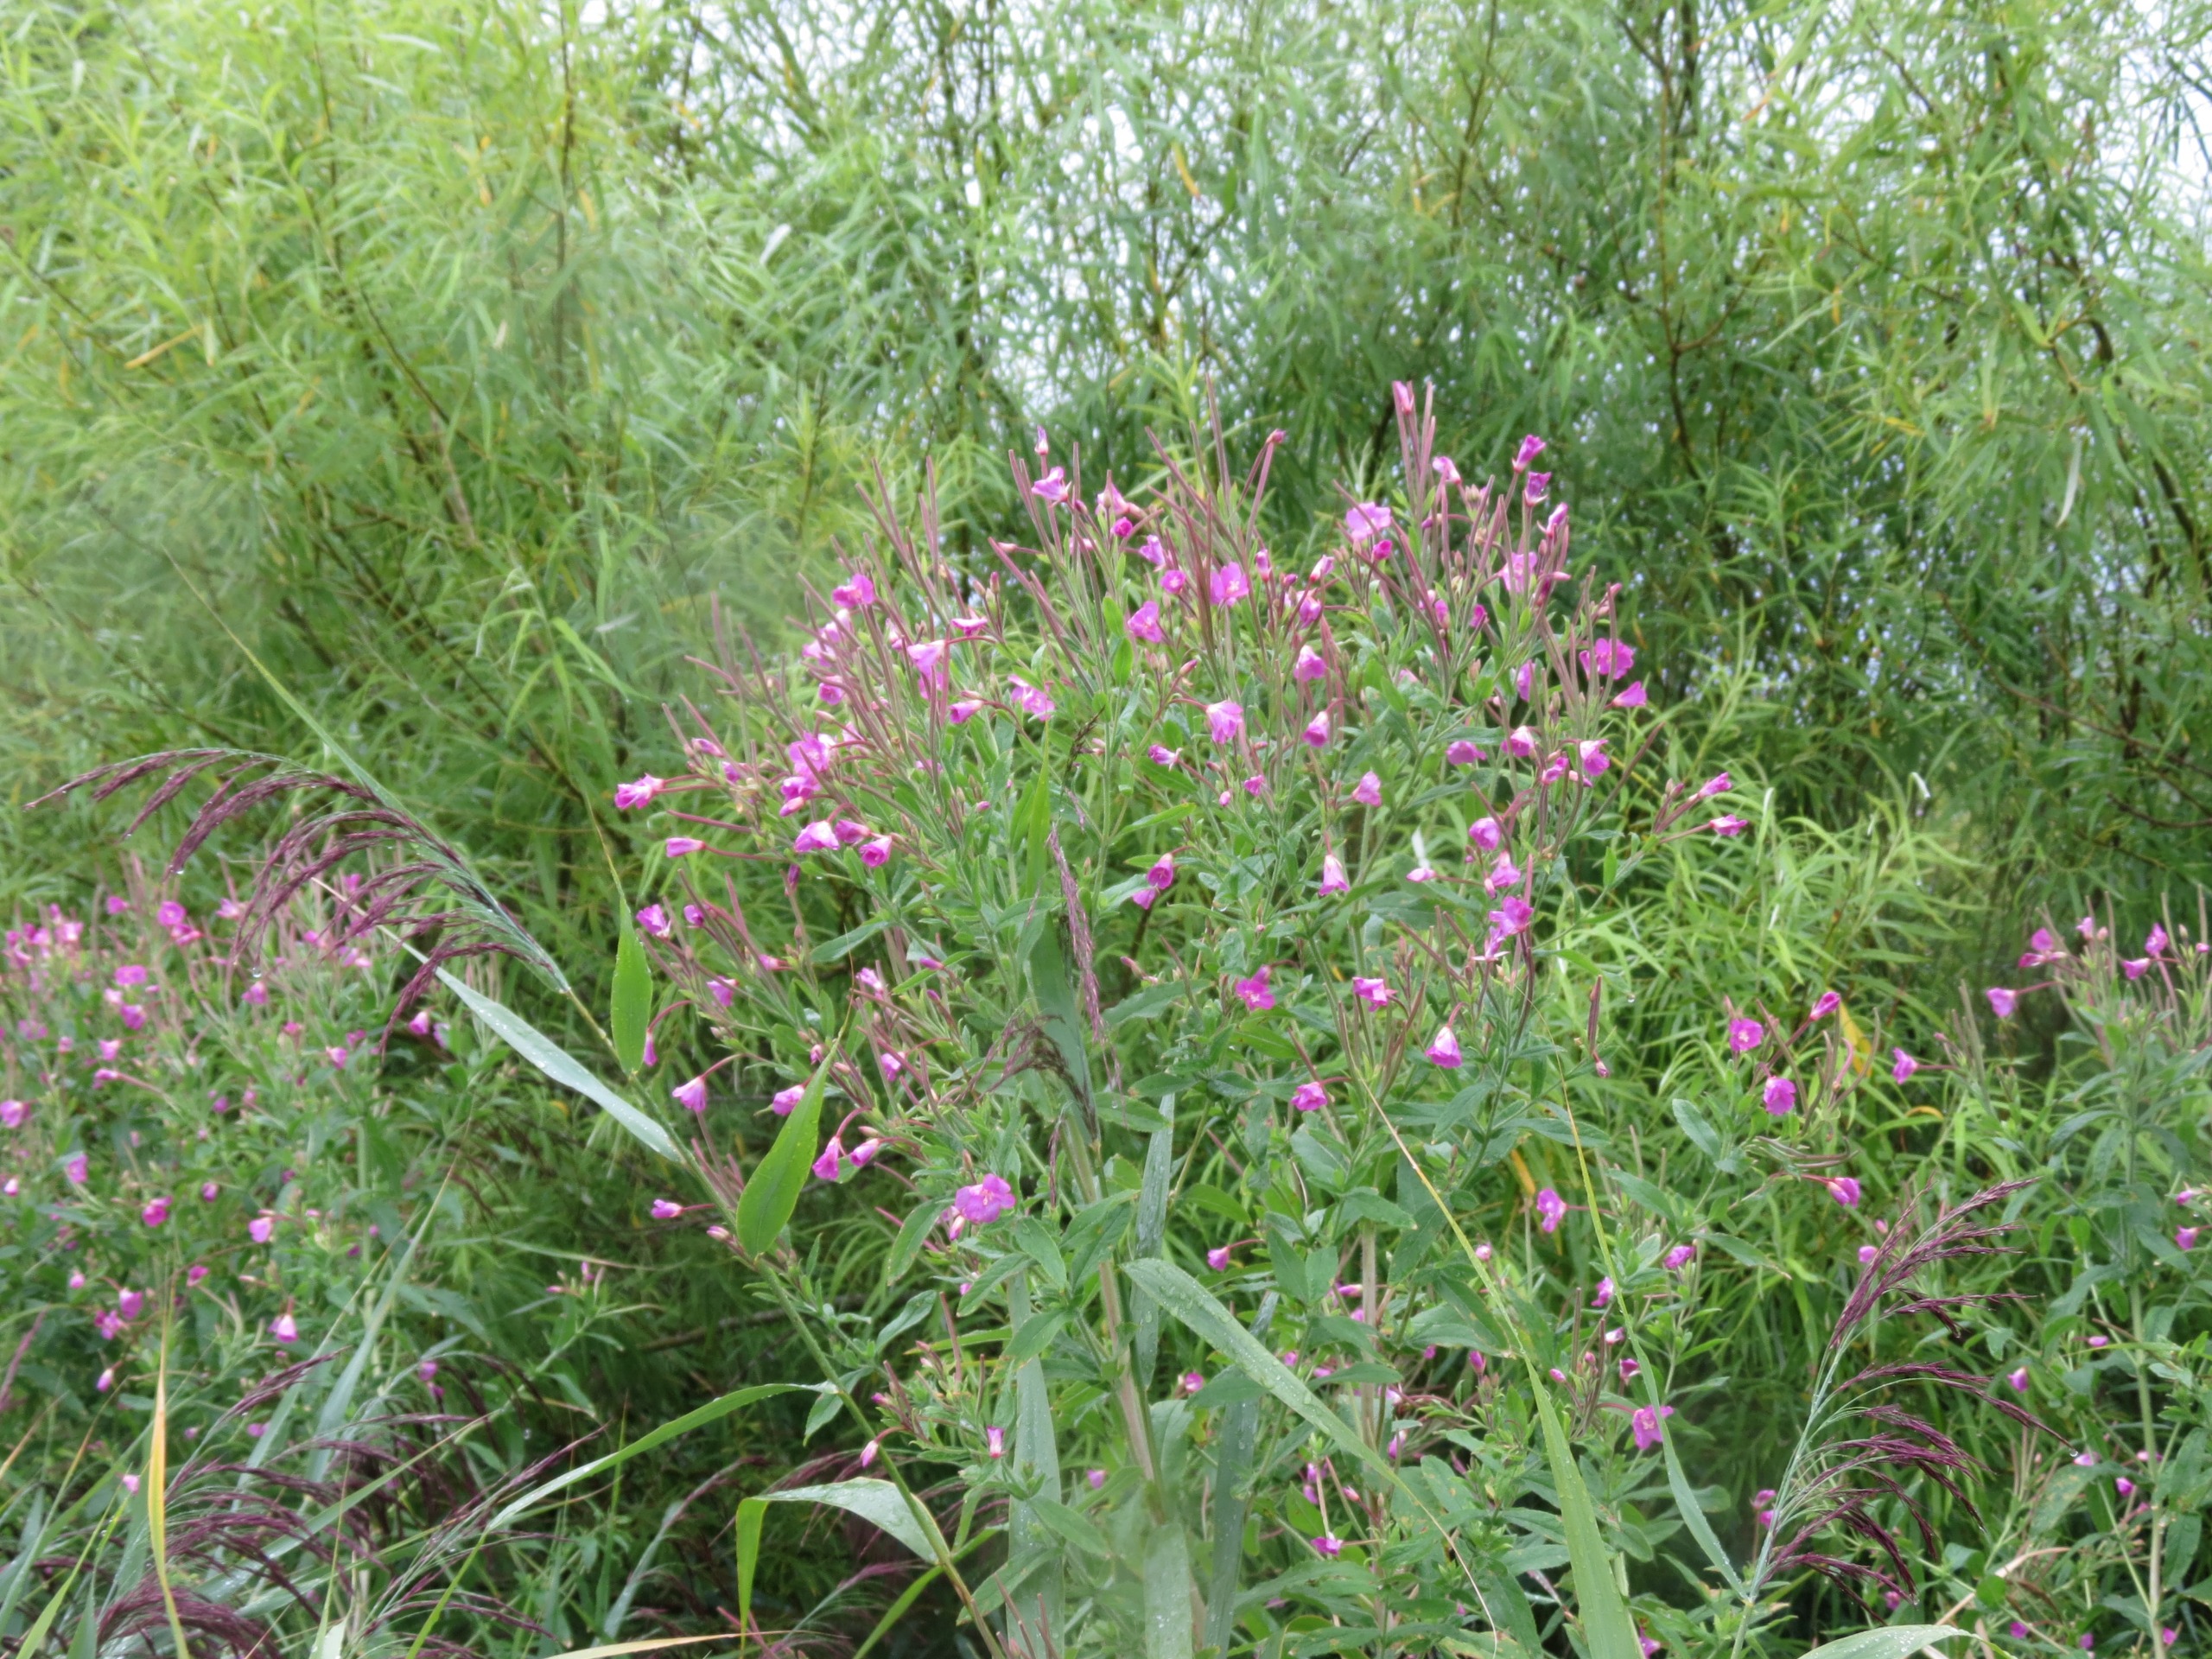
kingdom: Plantae
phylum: Tracheophyta
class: Magnoliopsida
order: Myrtales
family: Onagraceae
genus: Epilobium
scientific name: Epilobium hirsutum
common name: Lådden dueurt
